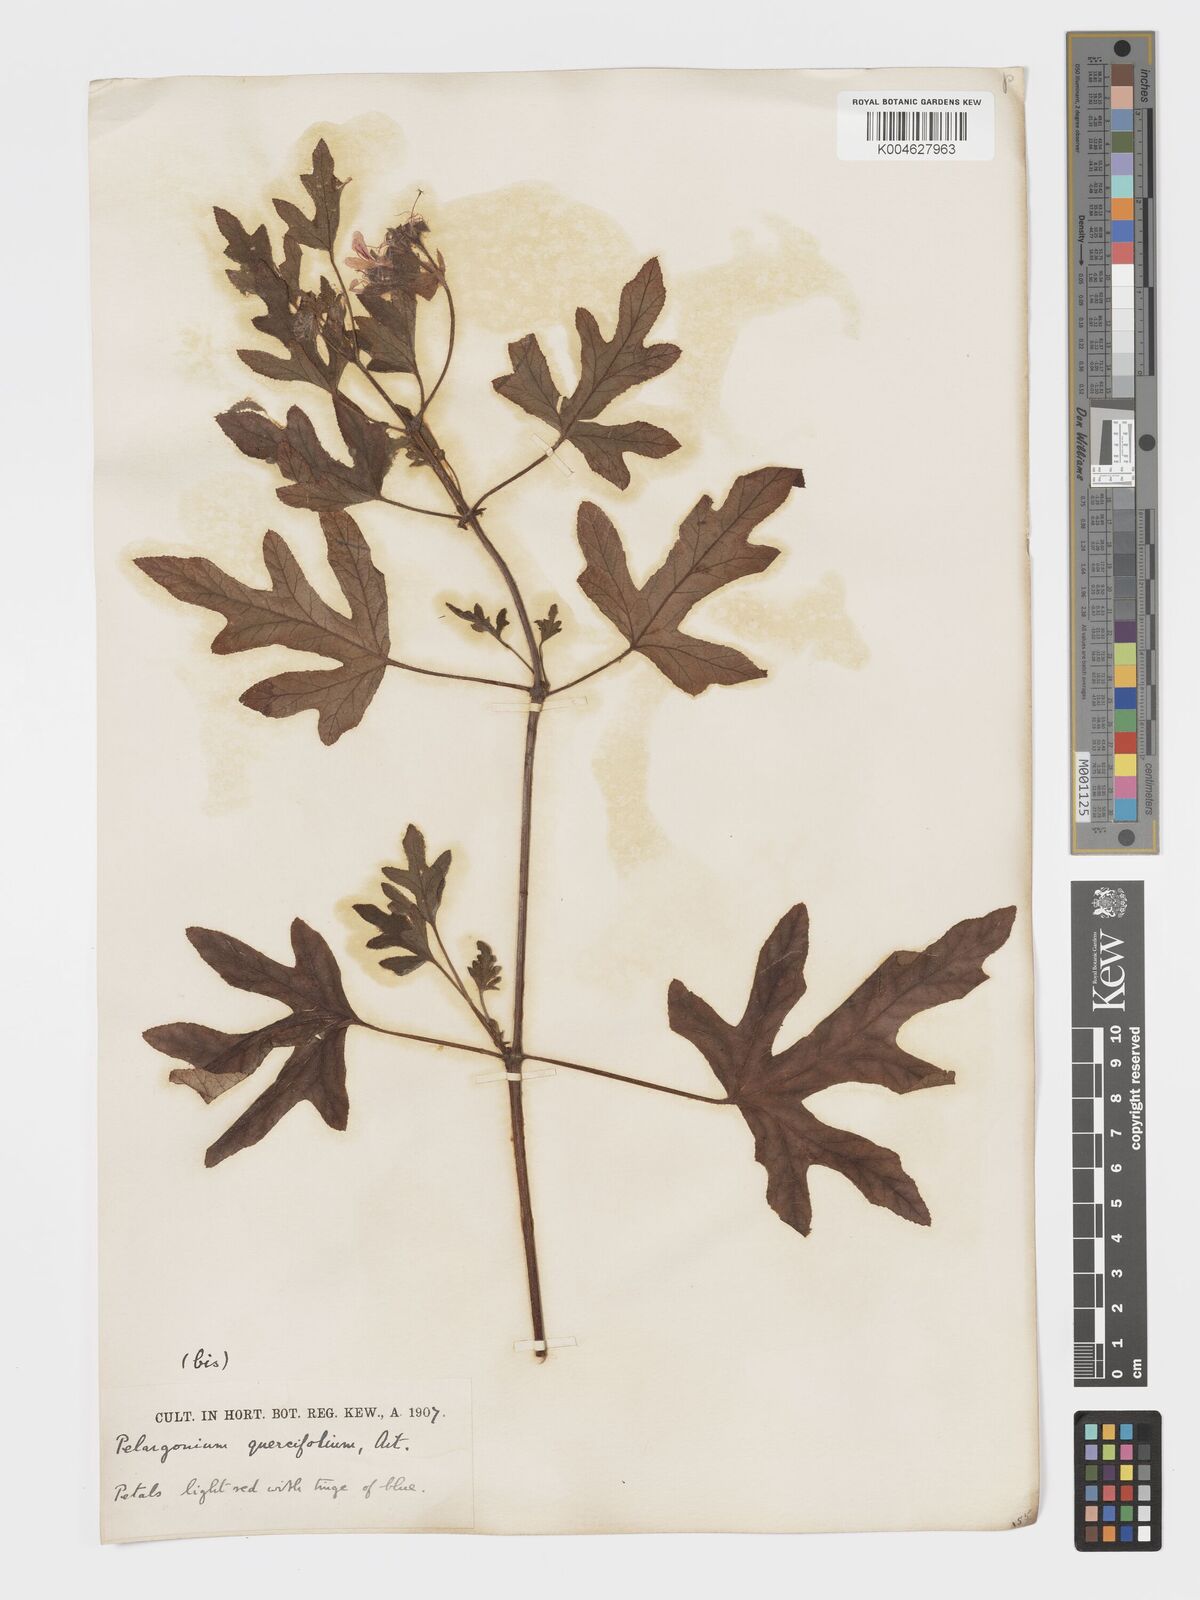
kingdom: Plantae
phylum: Tracheophyta
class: Magnoliopsida
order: Geraniales
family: Geraniaceae
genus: Pelargonium
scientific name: Pelargonium quercifolium
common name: Oakleaf geranium
